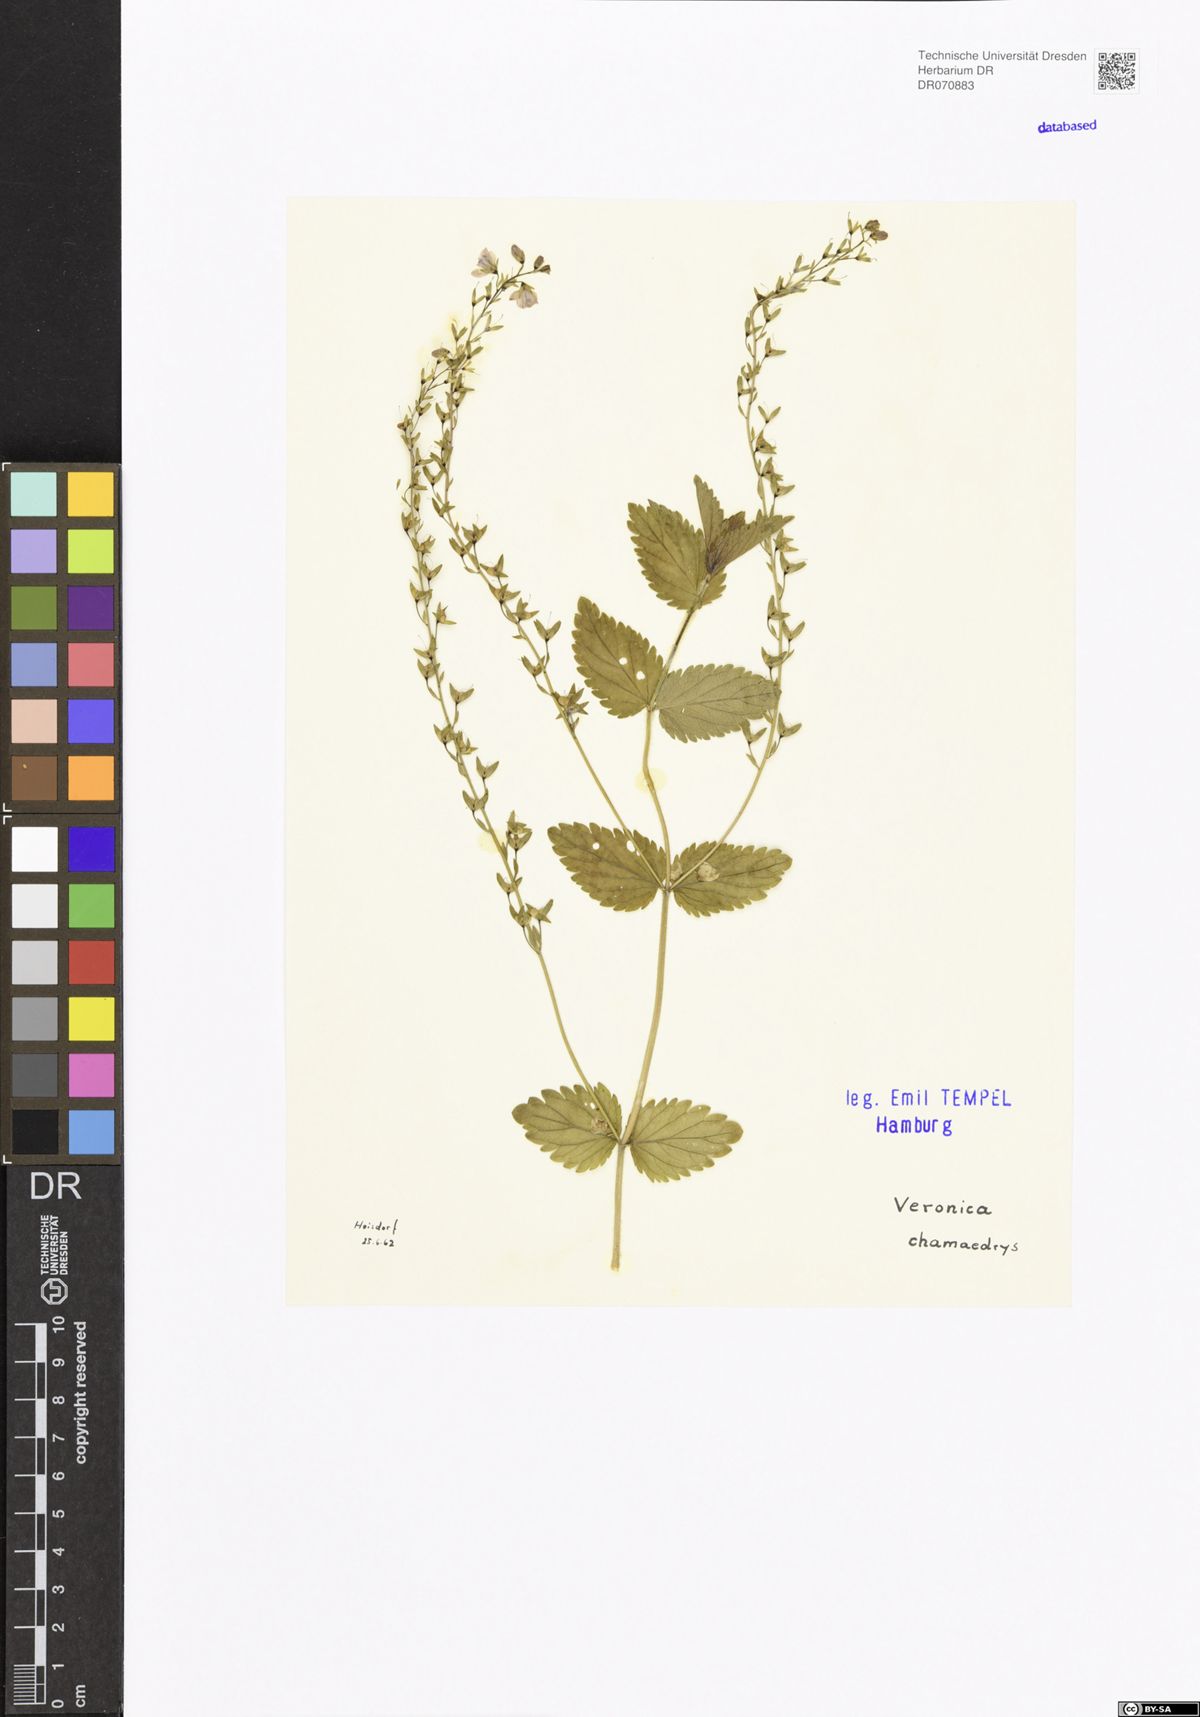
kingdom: Plantae
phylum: Tracheophyta
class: Magnoliopsida
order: Lamiales
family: Plantaginaceae
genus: Veronica
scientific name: Veronica chamaedrys
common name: Germander speedwell
